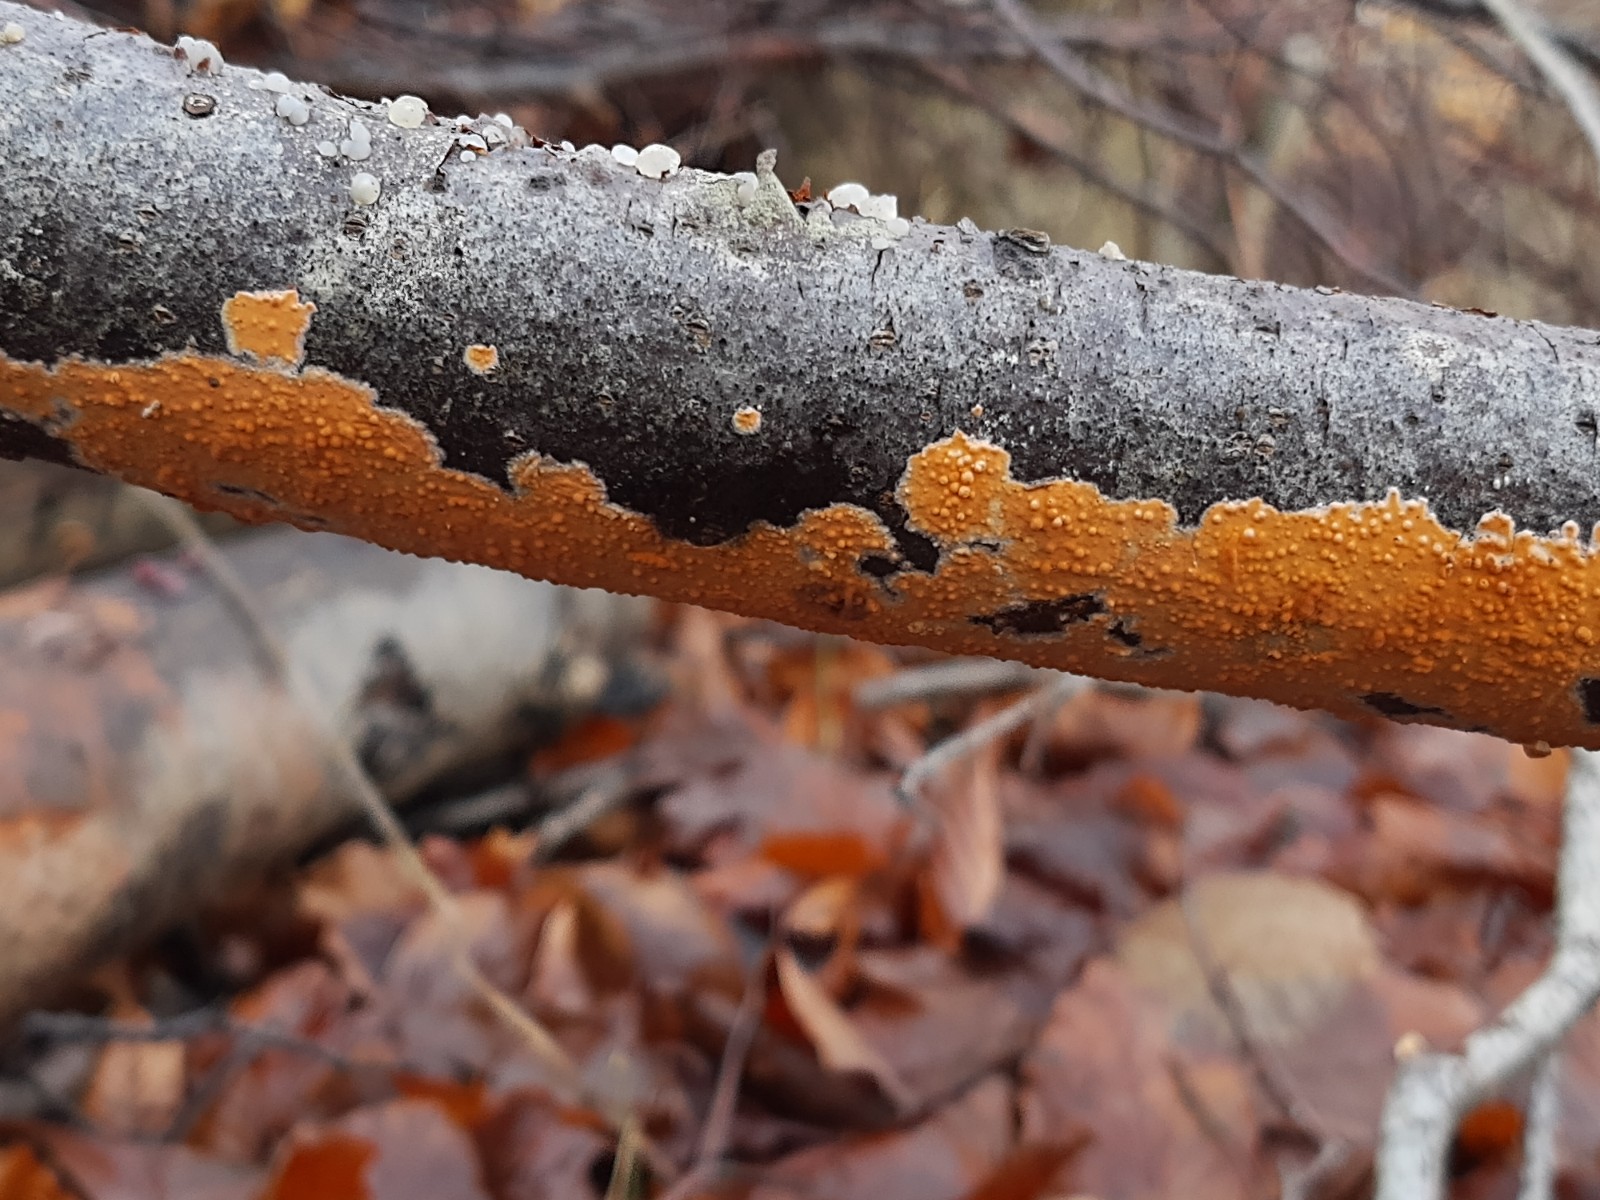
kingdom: Fungi
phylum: Basidiomycota
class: Agaricomycetes
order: Russulales
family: Peniophoraceae
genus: Peniophora
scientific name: Peniophora incarnata
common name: laksefarvet voksskind
